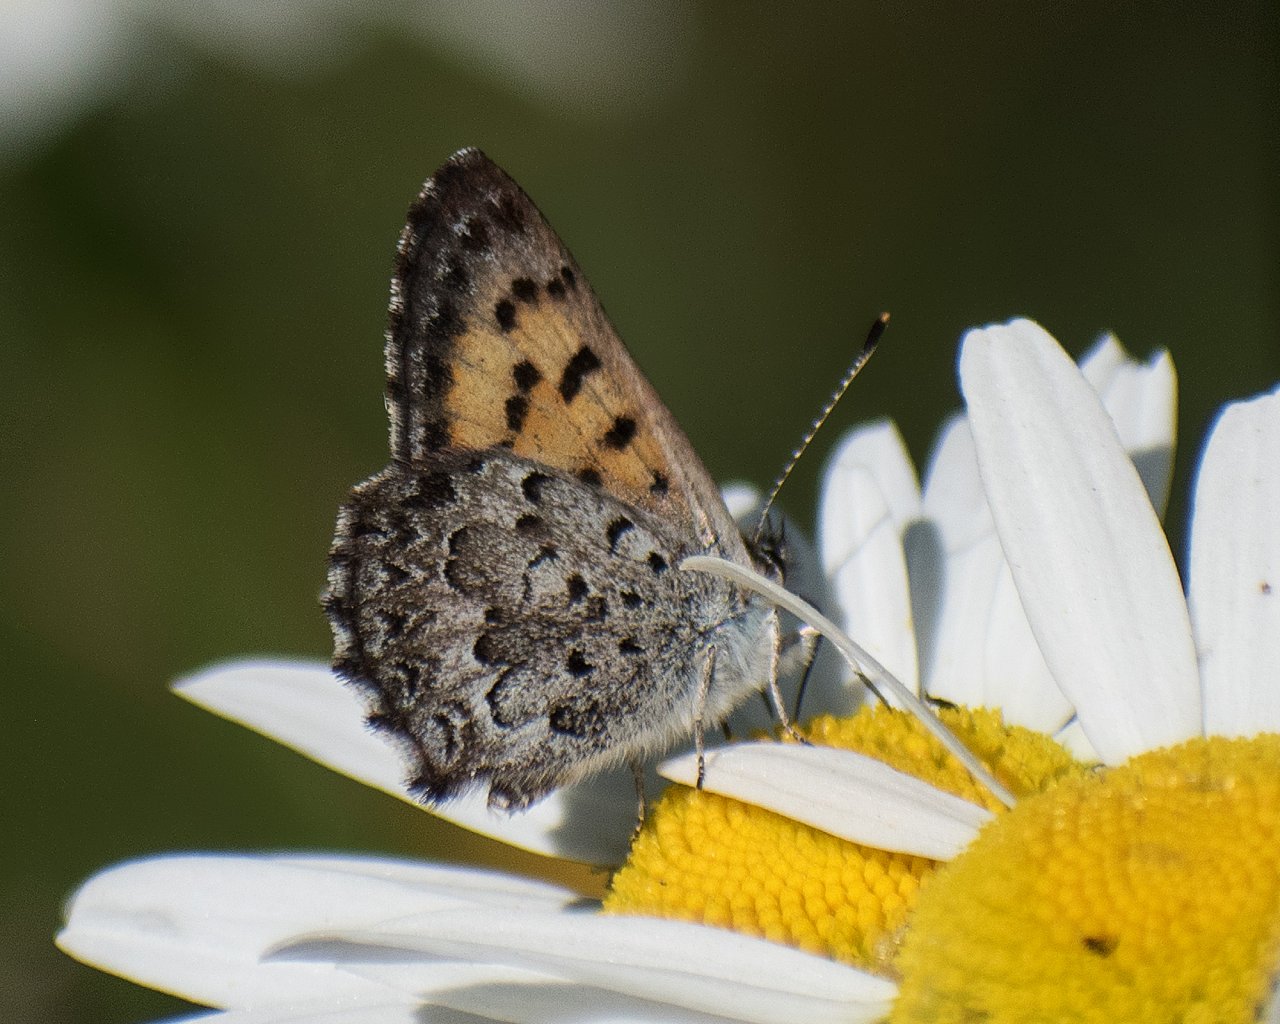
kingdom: Animalia
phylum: Arthropoda
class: Insecta
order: Lepidoptera
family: Lycaenidae
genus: Lycaena
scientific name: Lycaena mariposa
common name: Mariposa Copper
